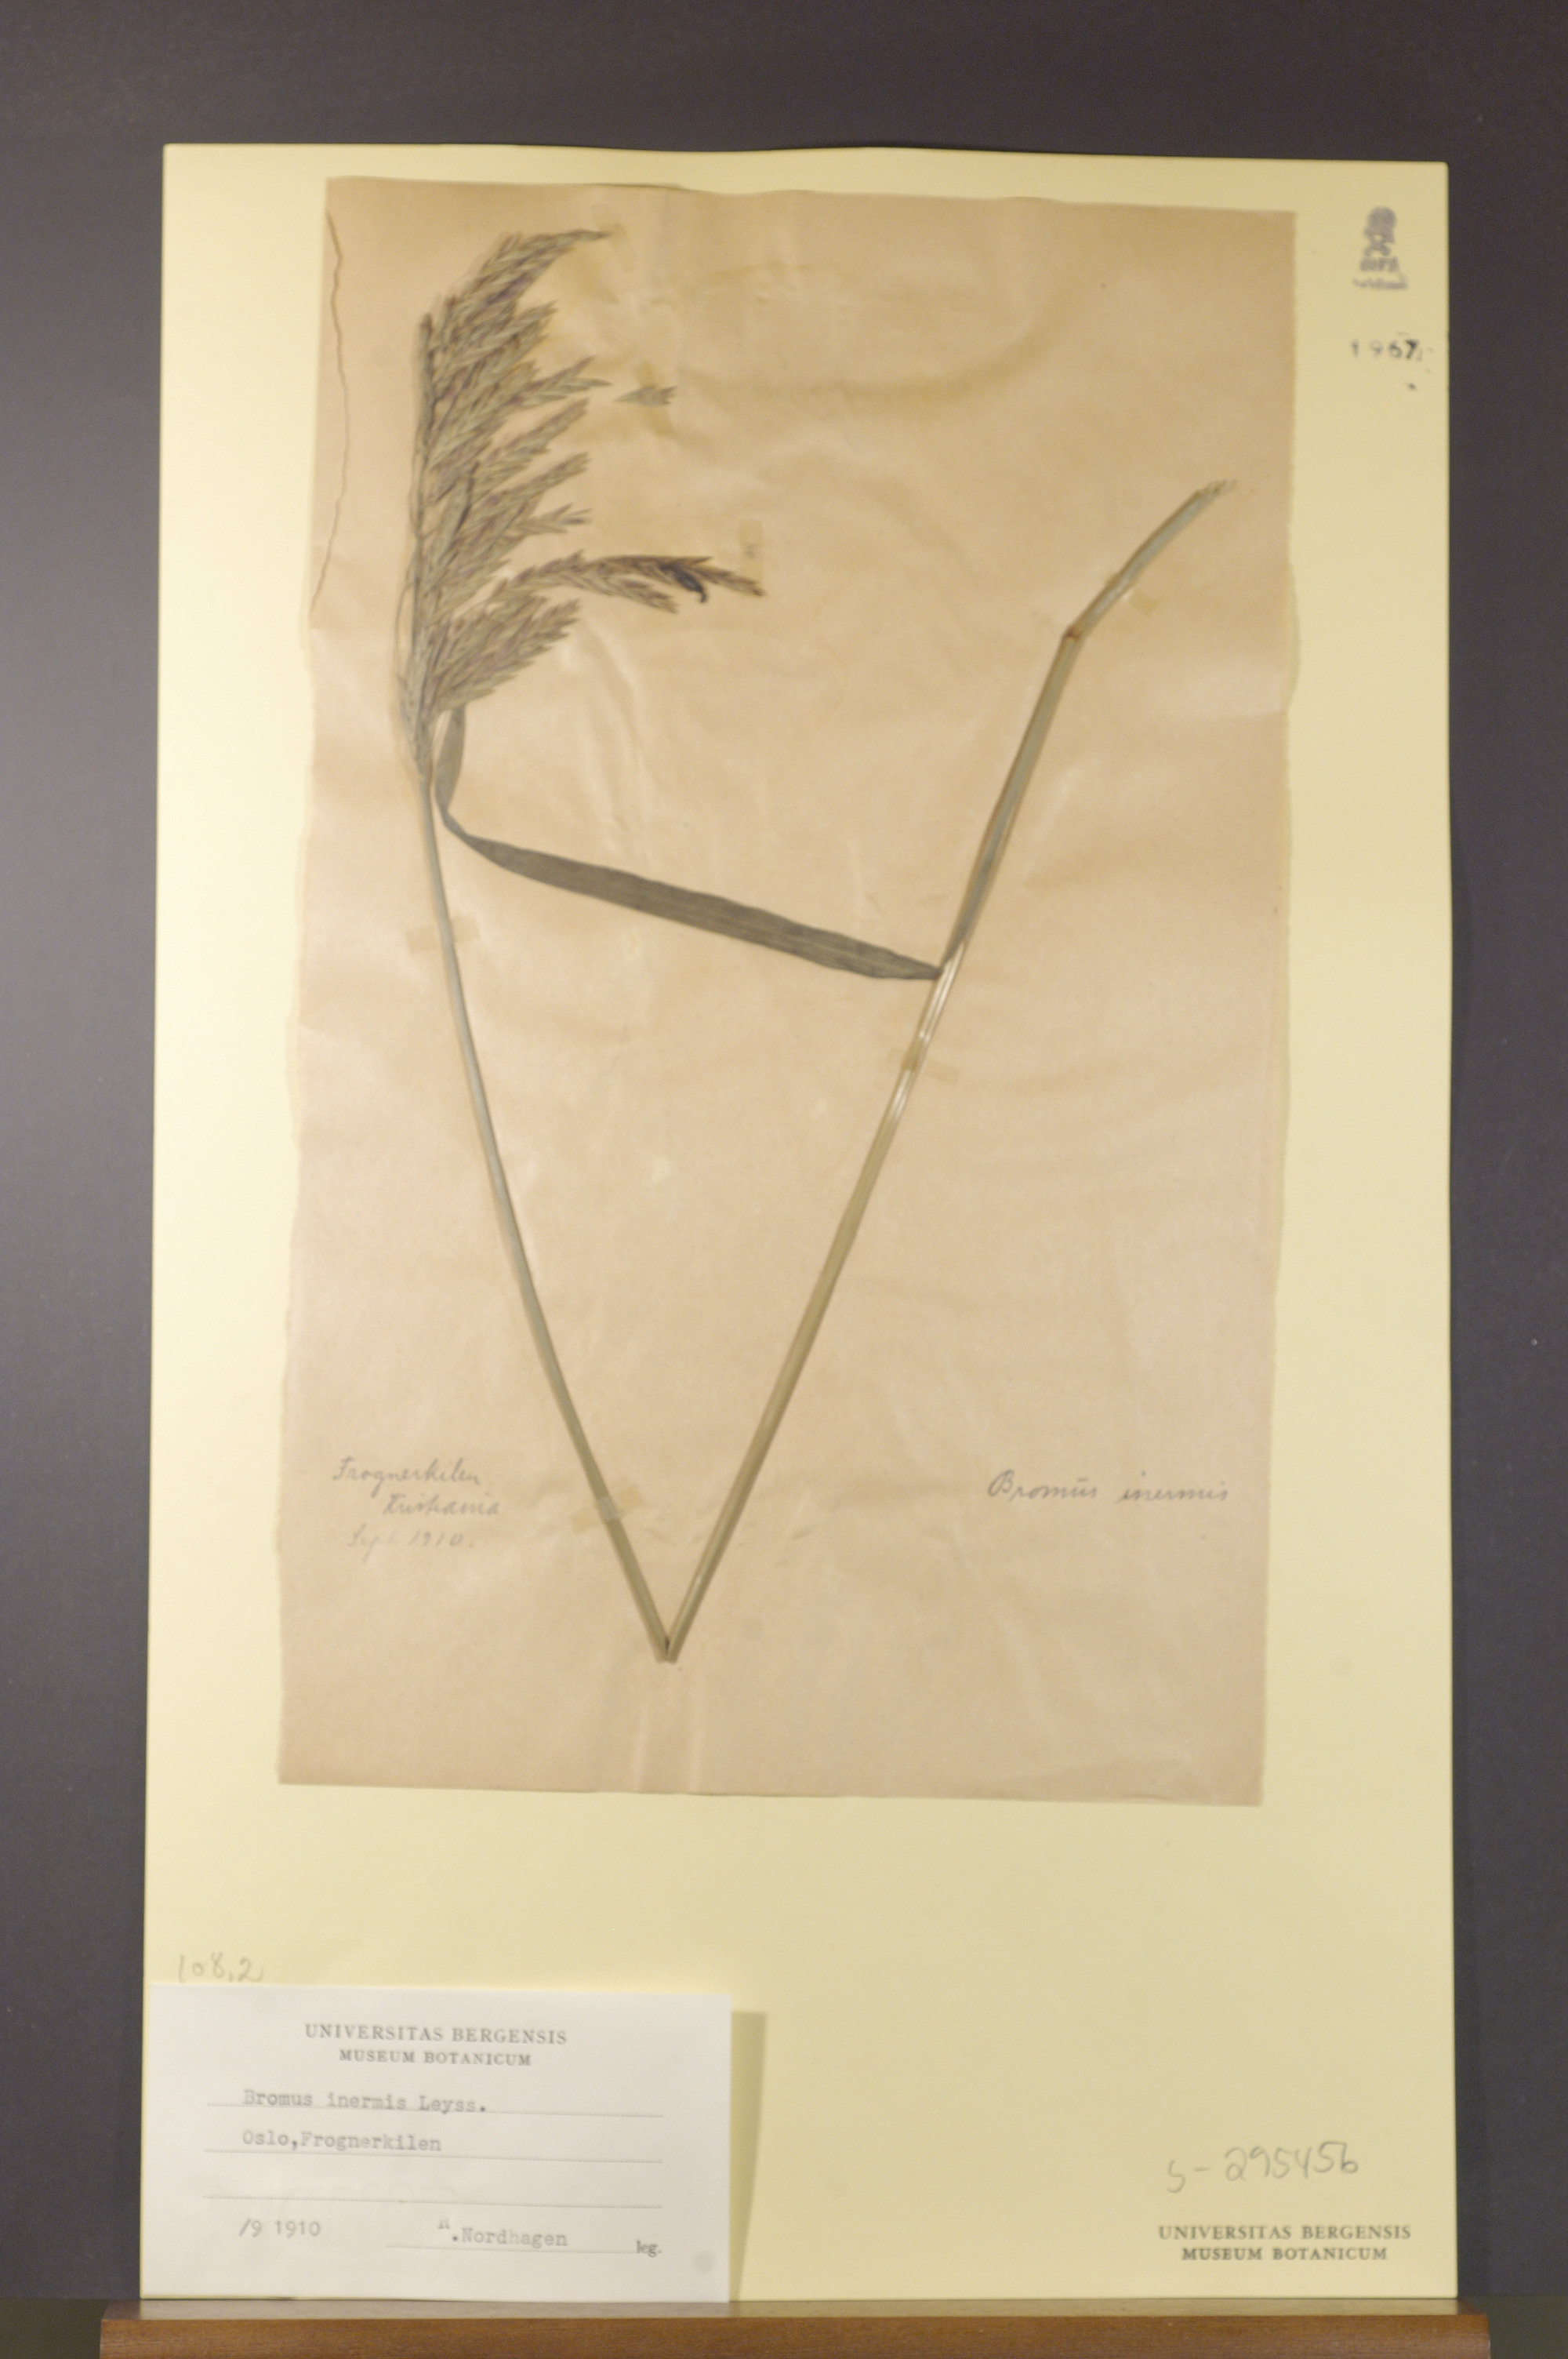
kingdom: Plantae
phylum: Tracheophyta
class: Liliopsida
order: Poales
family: Poaceae
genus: Bromus
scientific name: Bromus inermis
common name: Smooth brome
